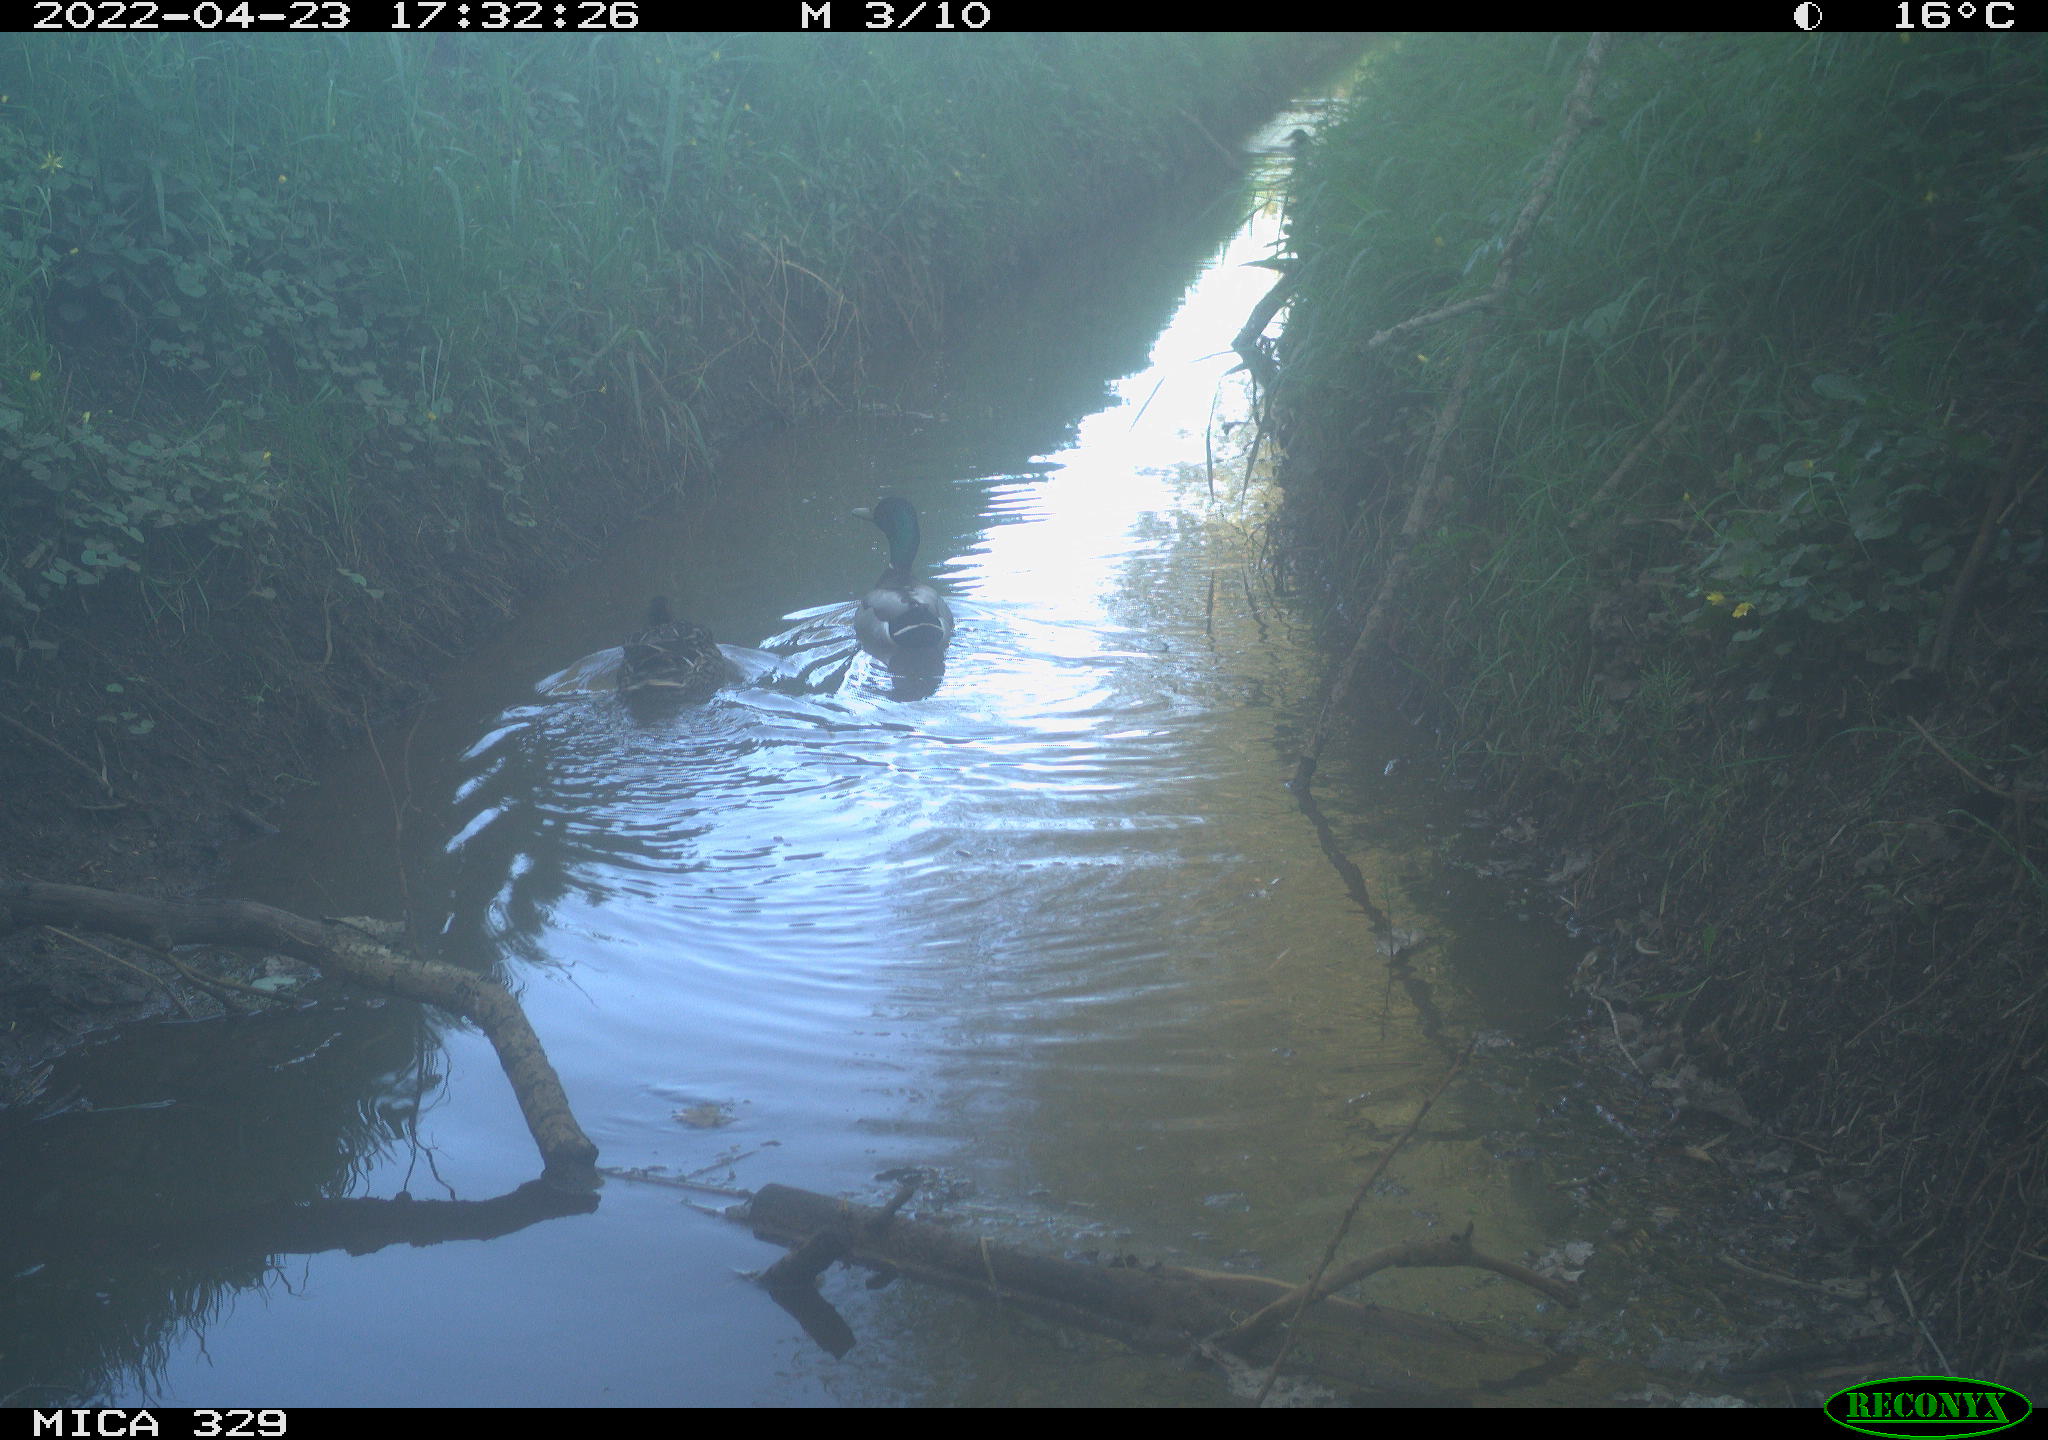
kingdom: Animalia
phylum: Chordata
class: Aves
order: Anseriformes
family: Anatidae
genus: Anas
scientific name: Anas platyrhynchos
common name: Mallard
